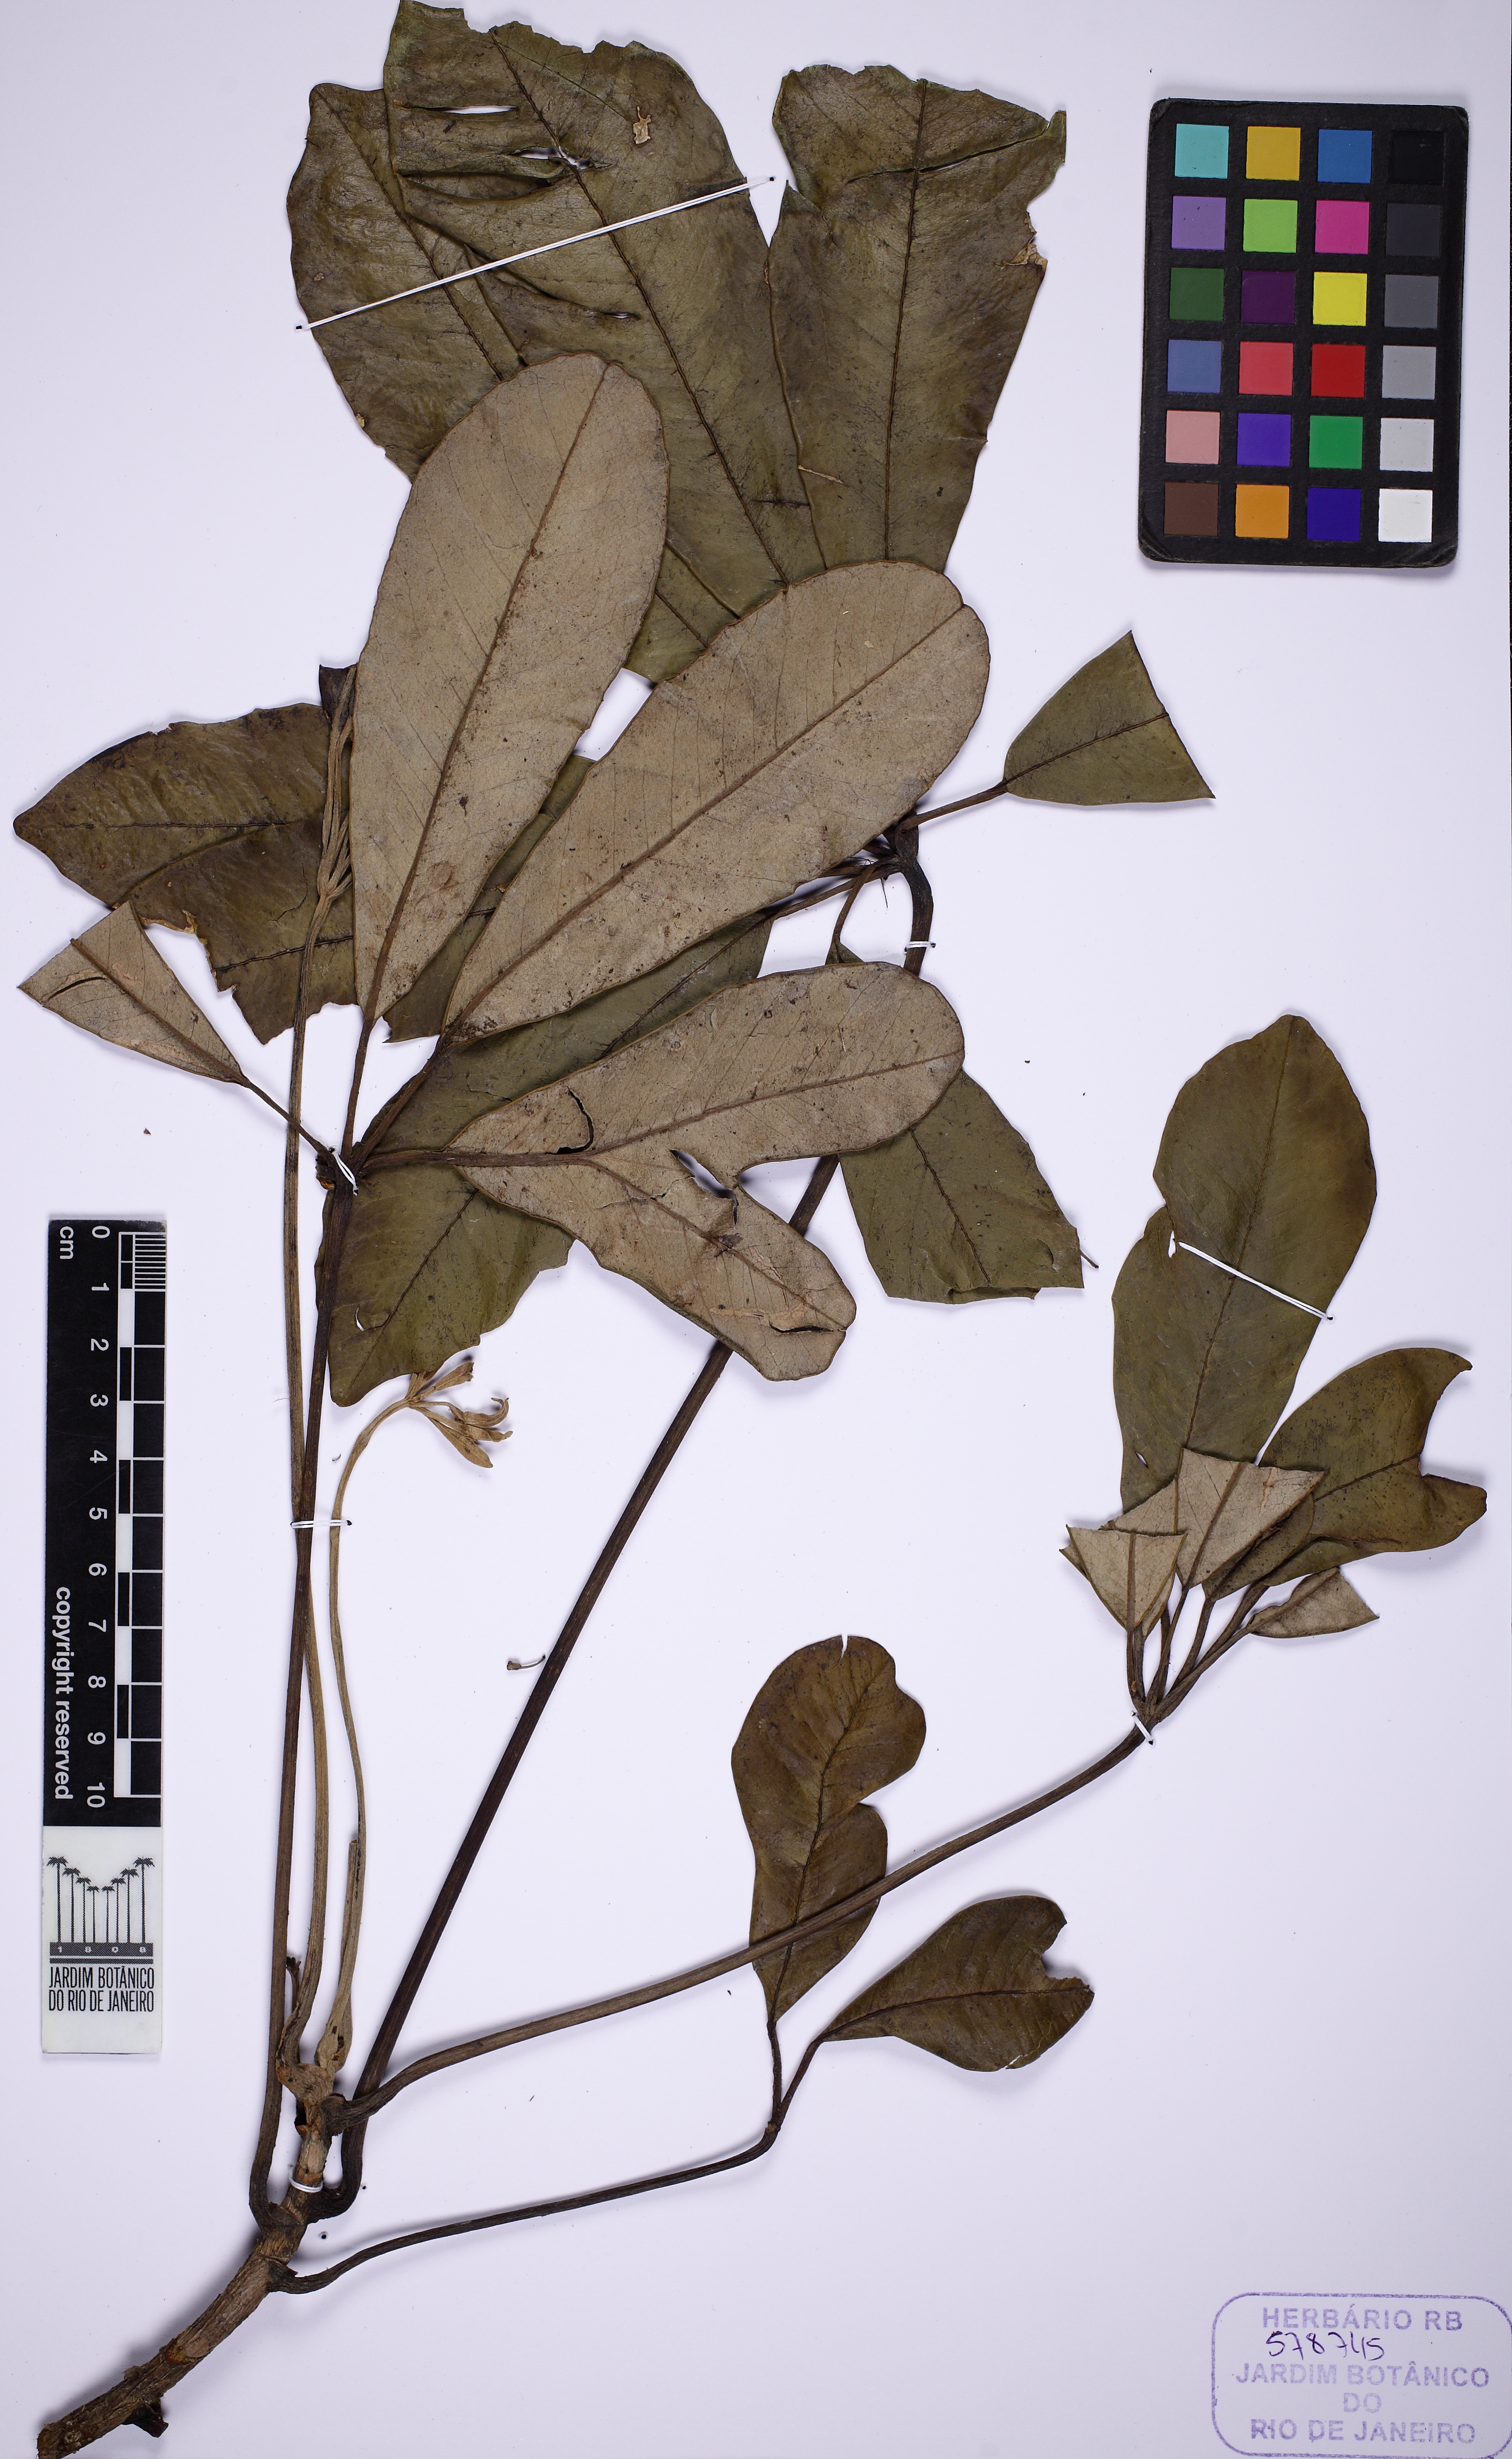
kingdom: Plantae
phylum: Tracheophyta
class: Magnoliopsida
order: Apiales
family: Araliaceae
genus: Crepinella
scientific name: Crepinella varisiana
